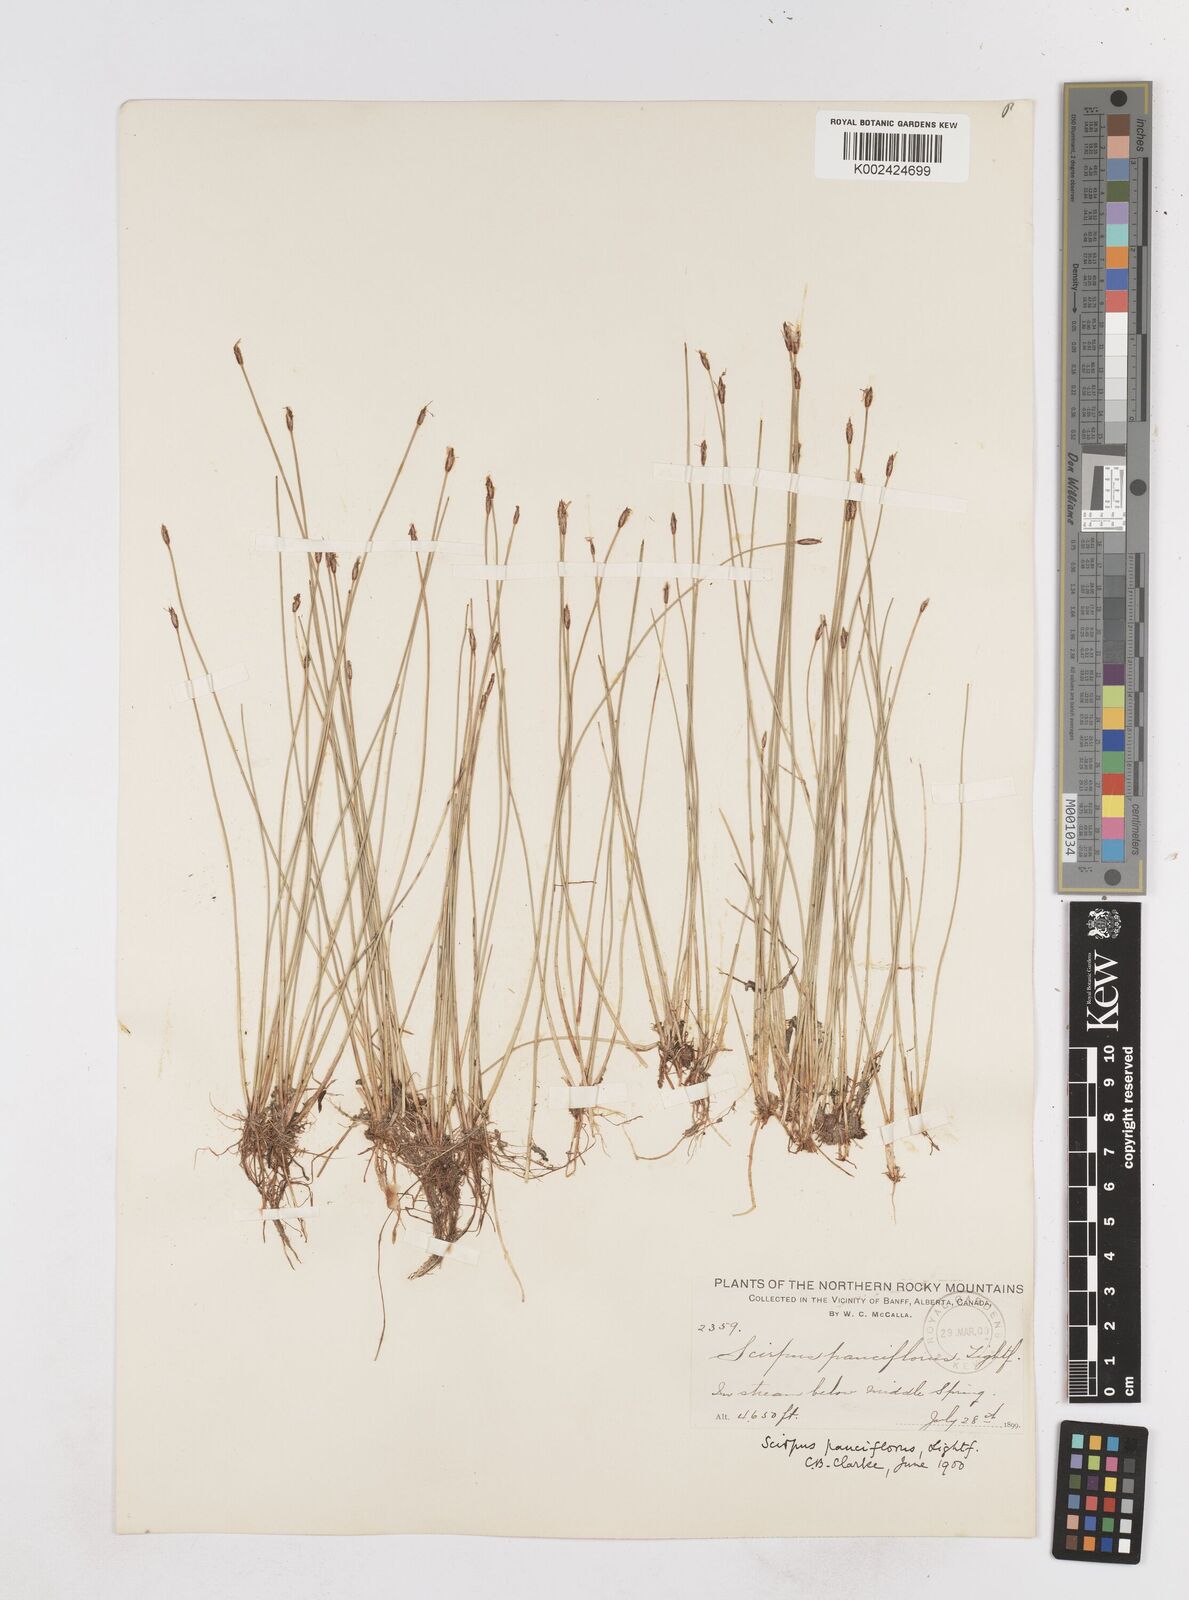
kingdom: Plantae
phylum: Tracheophyta
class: Liliopsida
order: Poales
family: Cyperaceae
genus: Eleocharis
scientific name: Eleocharis quinqueflora
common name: Few-flowered spike-rush
